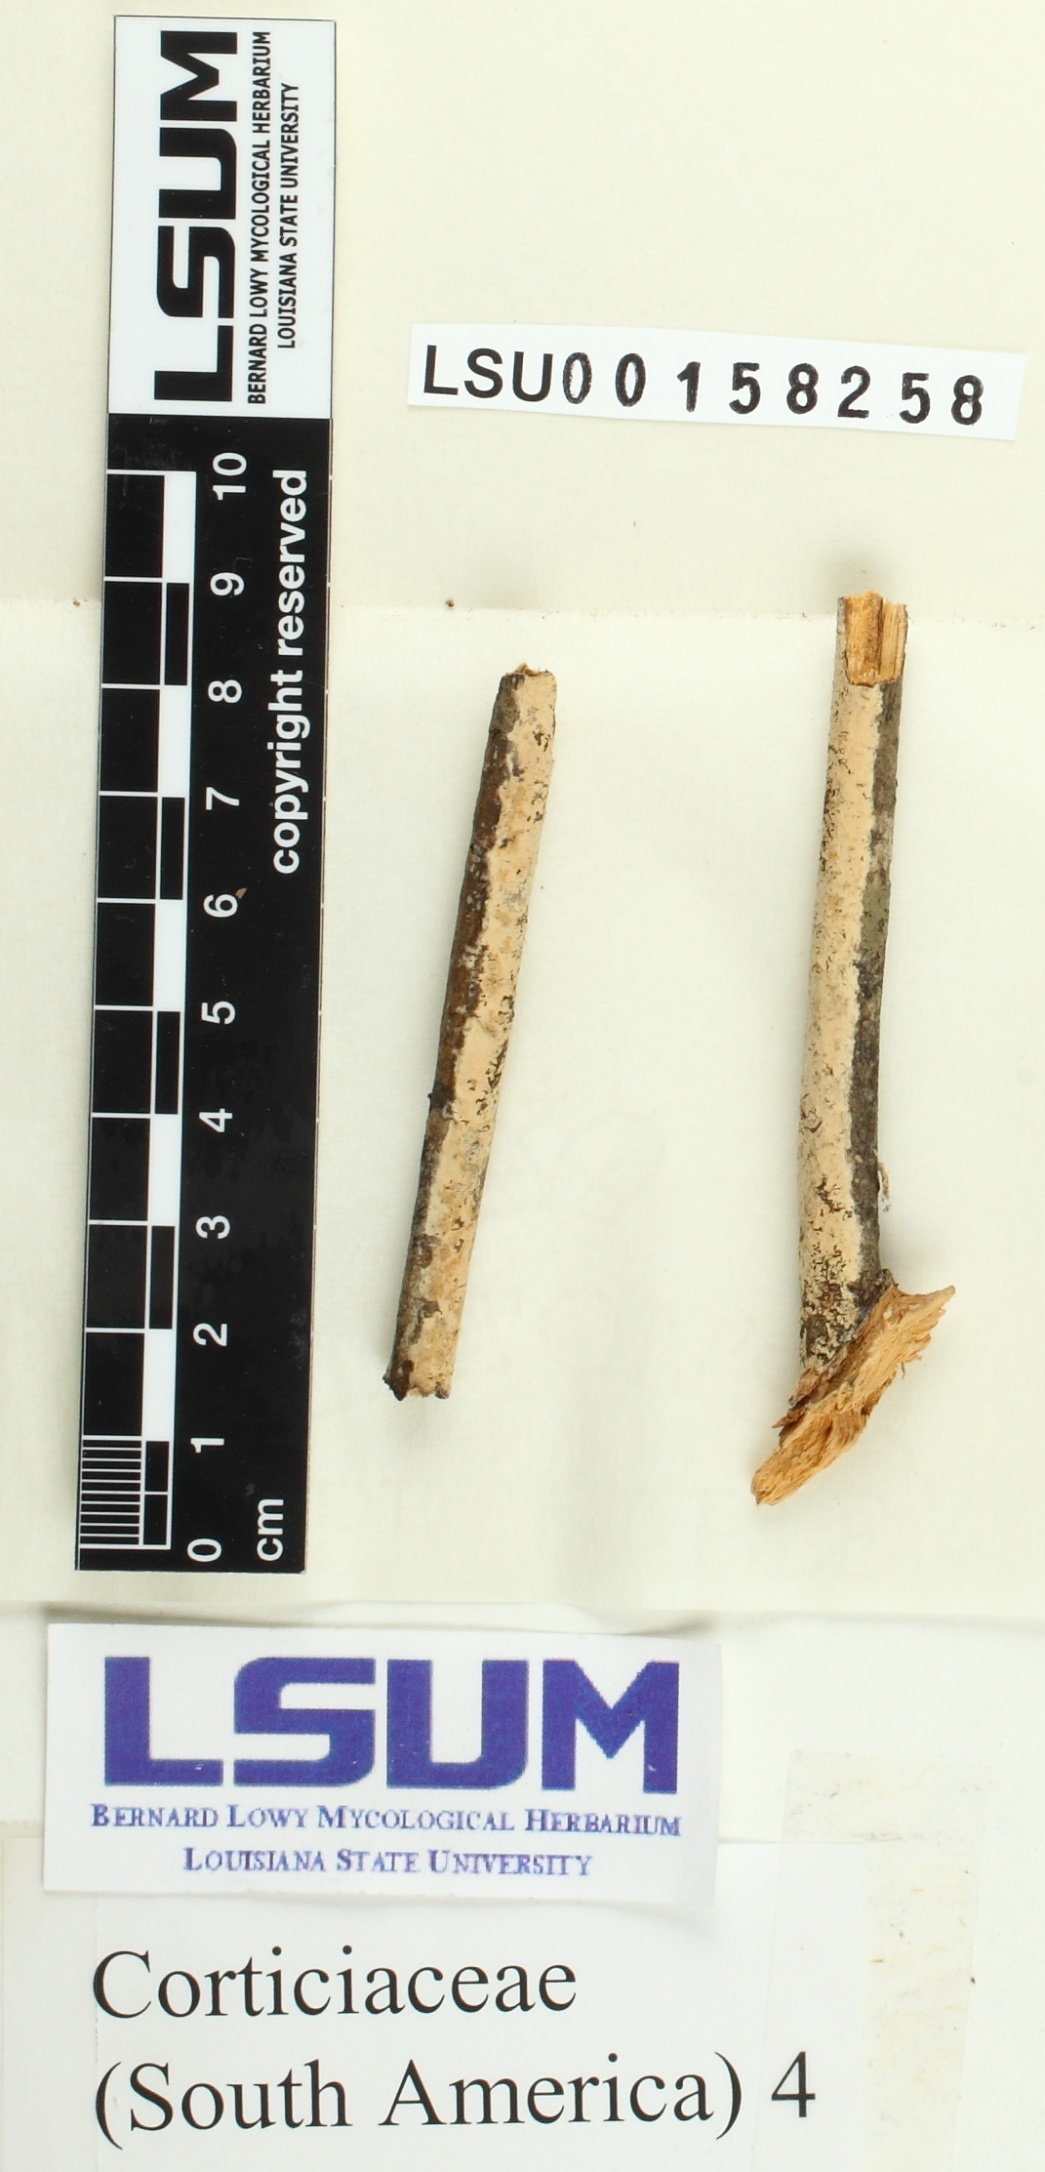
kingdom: Fungi
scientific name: Fungi
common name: Fungi
